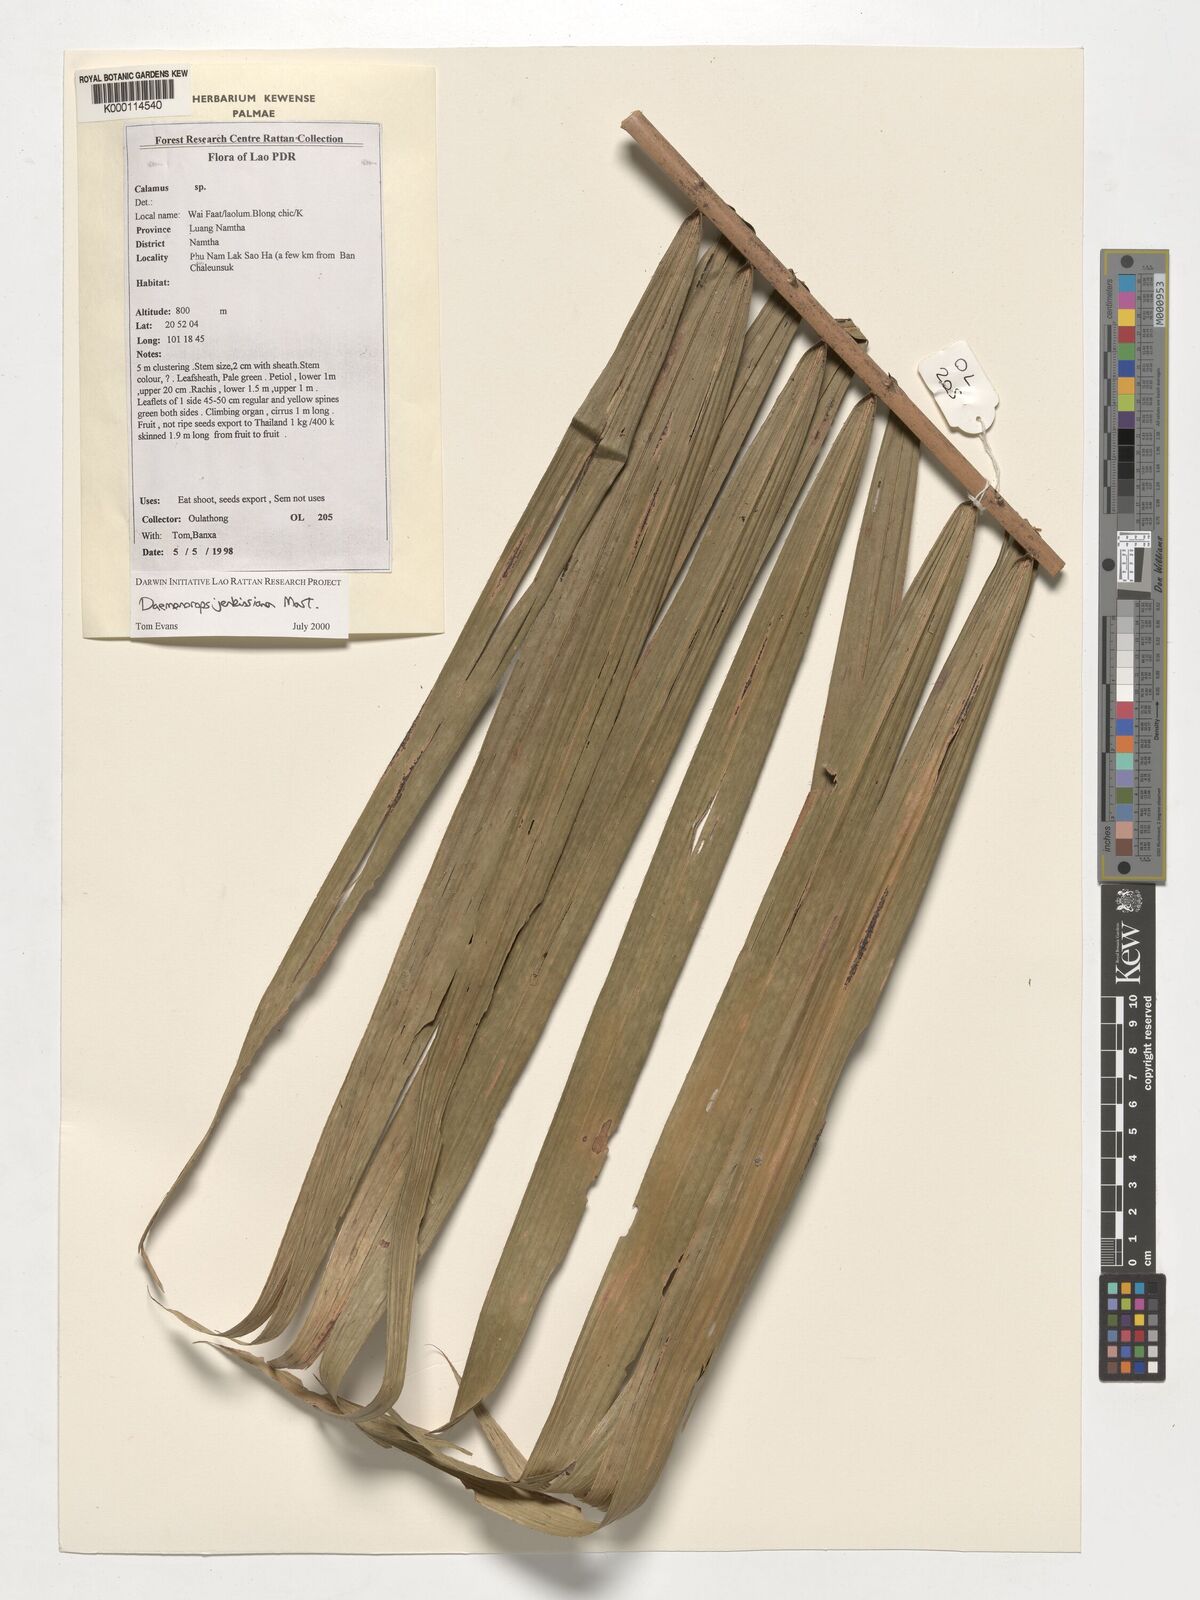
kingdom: Plantae
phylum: Tracheophyta
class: Liliopsida
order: Arecales
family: Arecaceae
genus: Calamus
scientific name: Calamus melanochaetes
